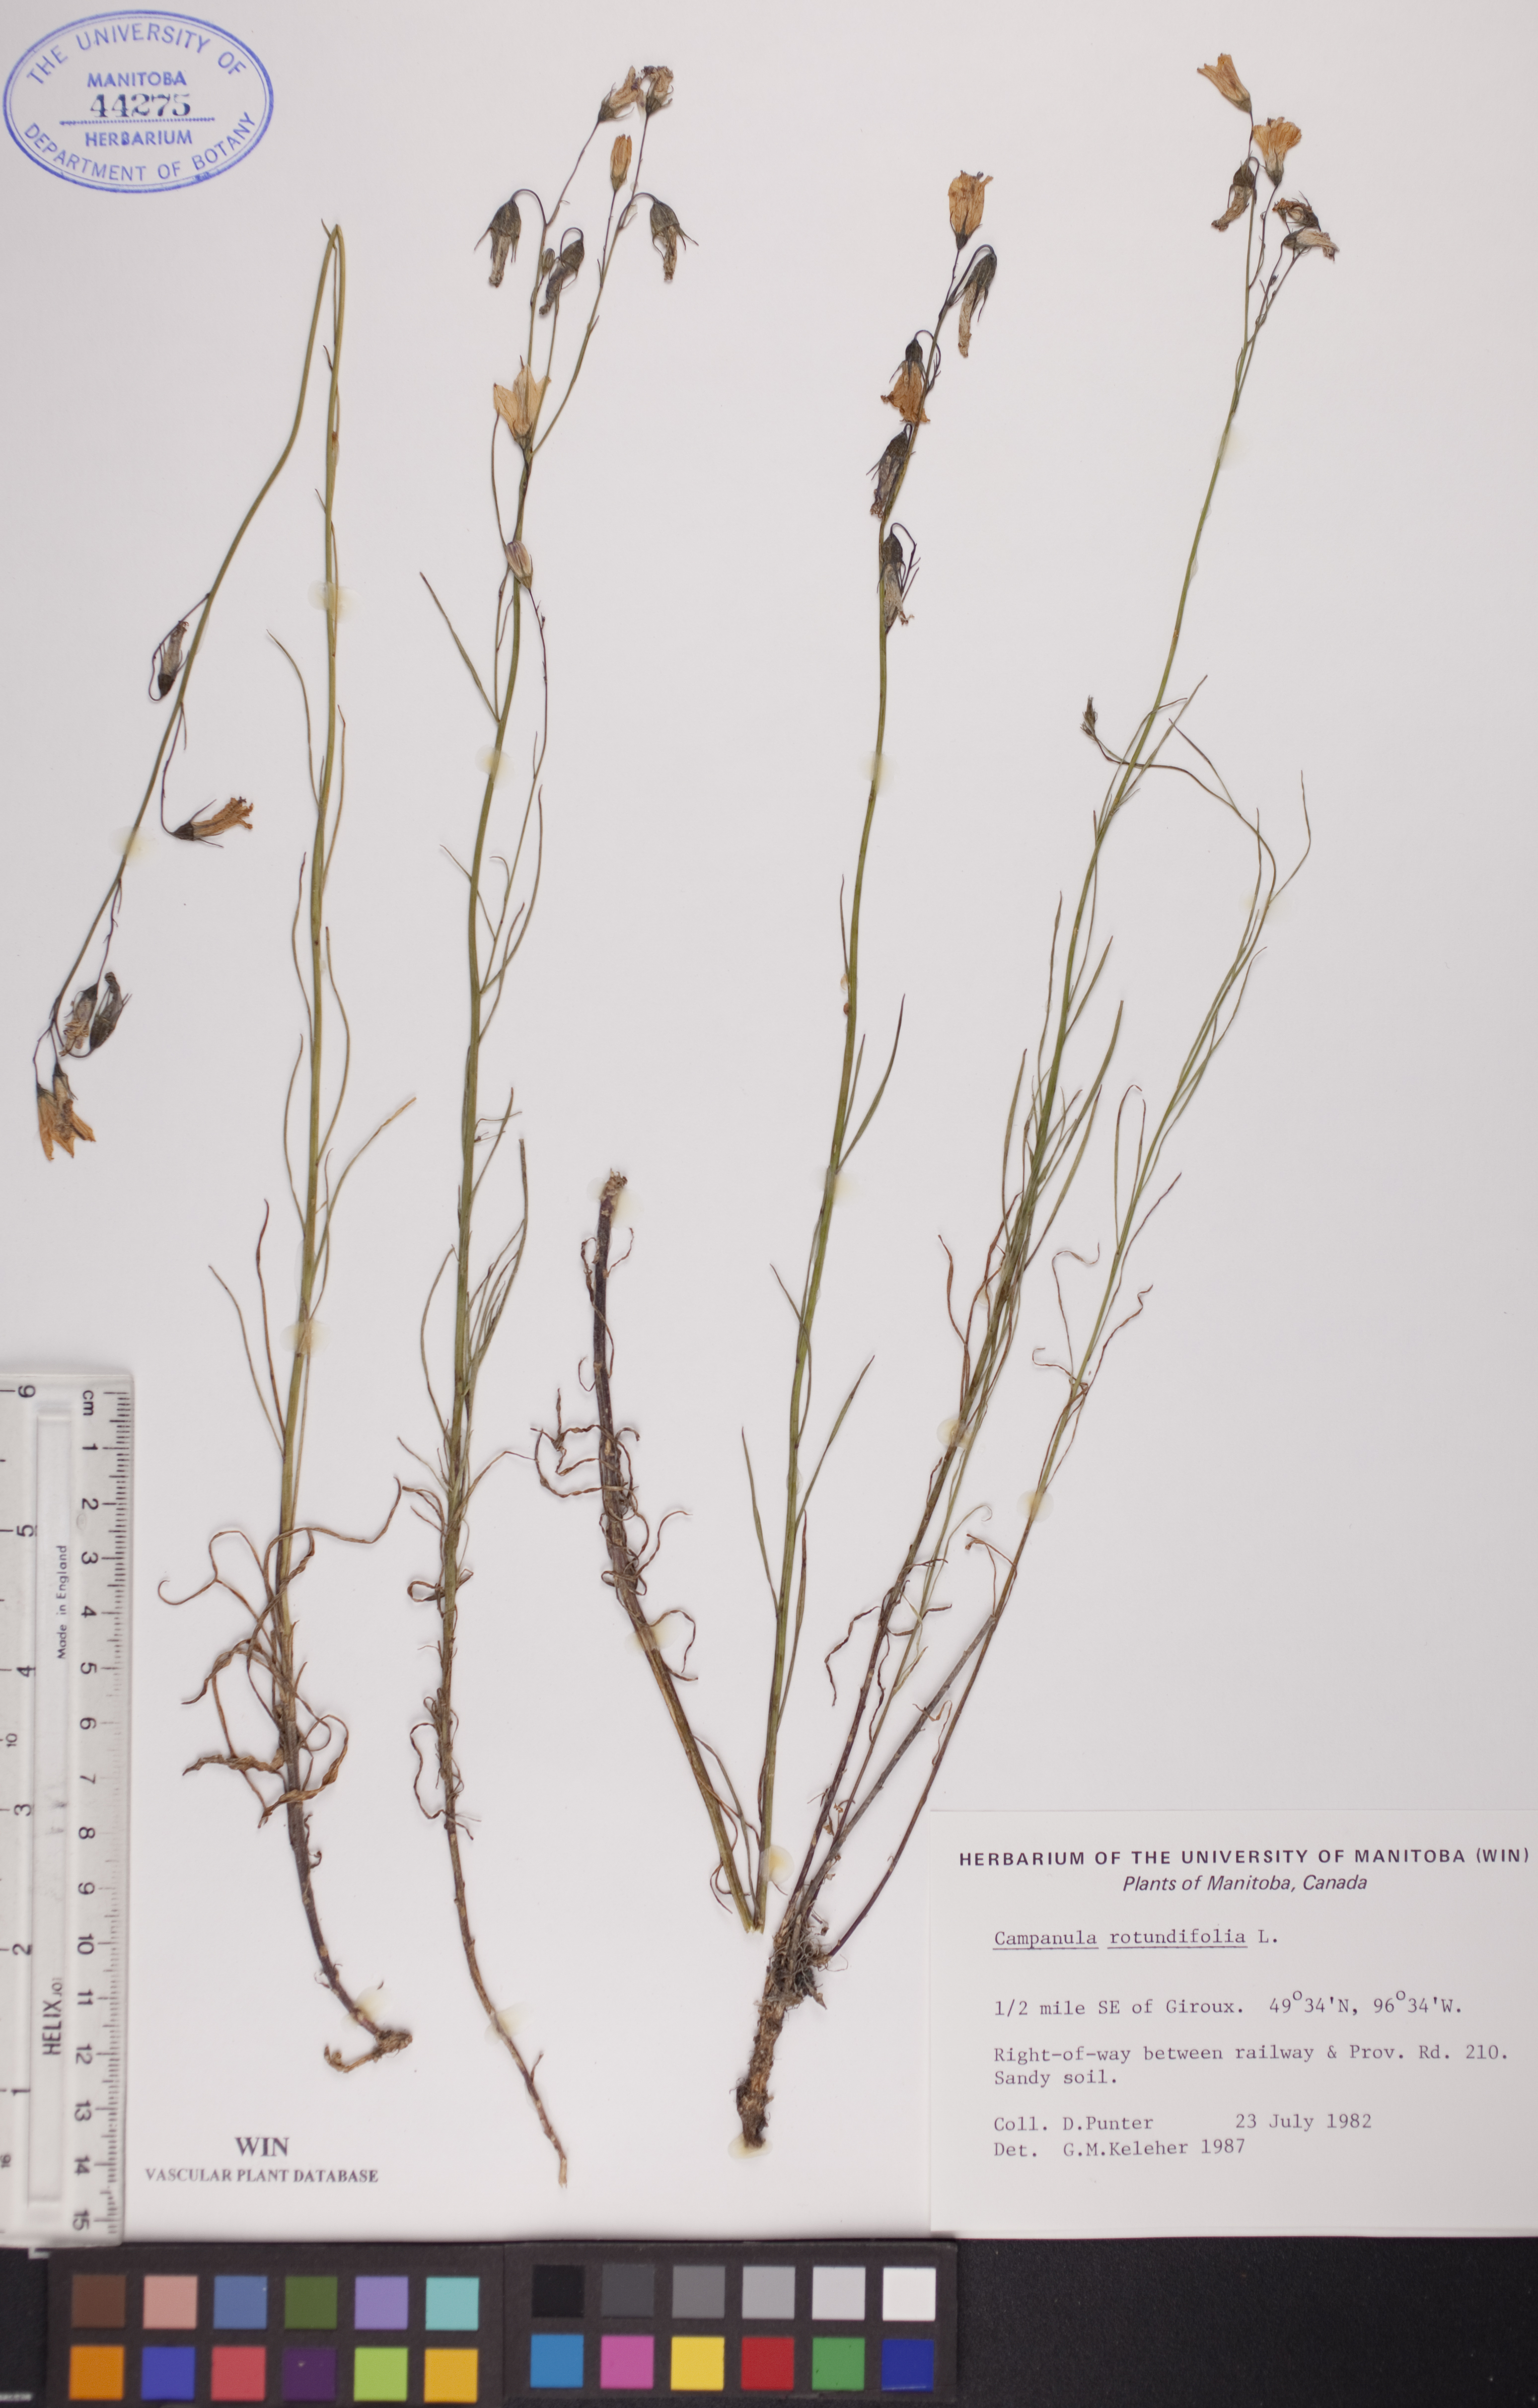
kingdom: Plantae
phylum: Tracheophyta
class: Magnoliopsida
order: Asterales
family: Campanulaceae
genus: Campanula
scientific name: Campanula rotundifolia
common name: Harebell
